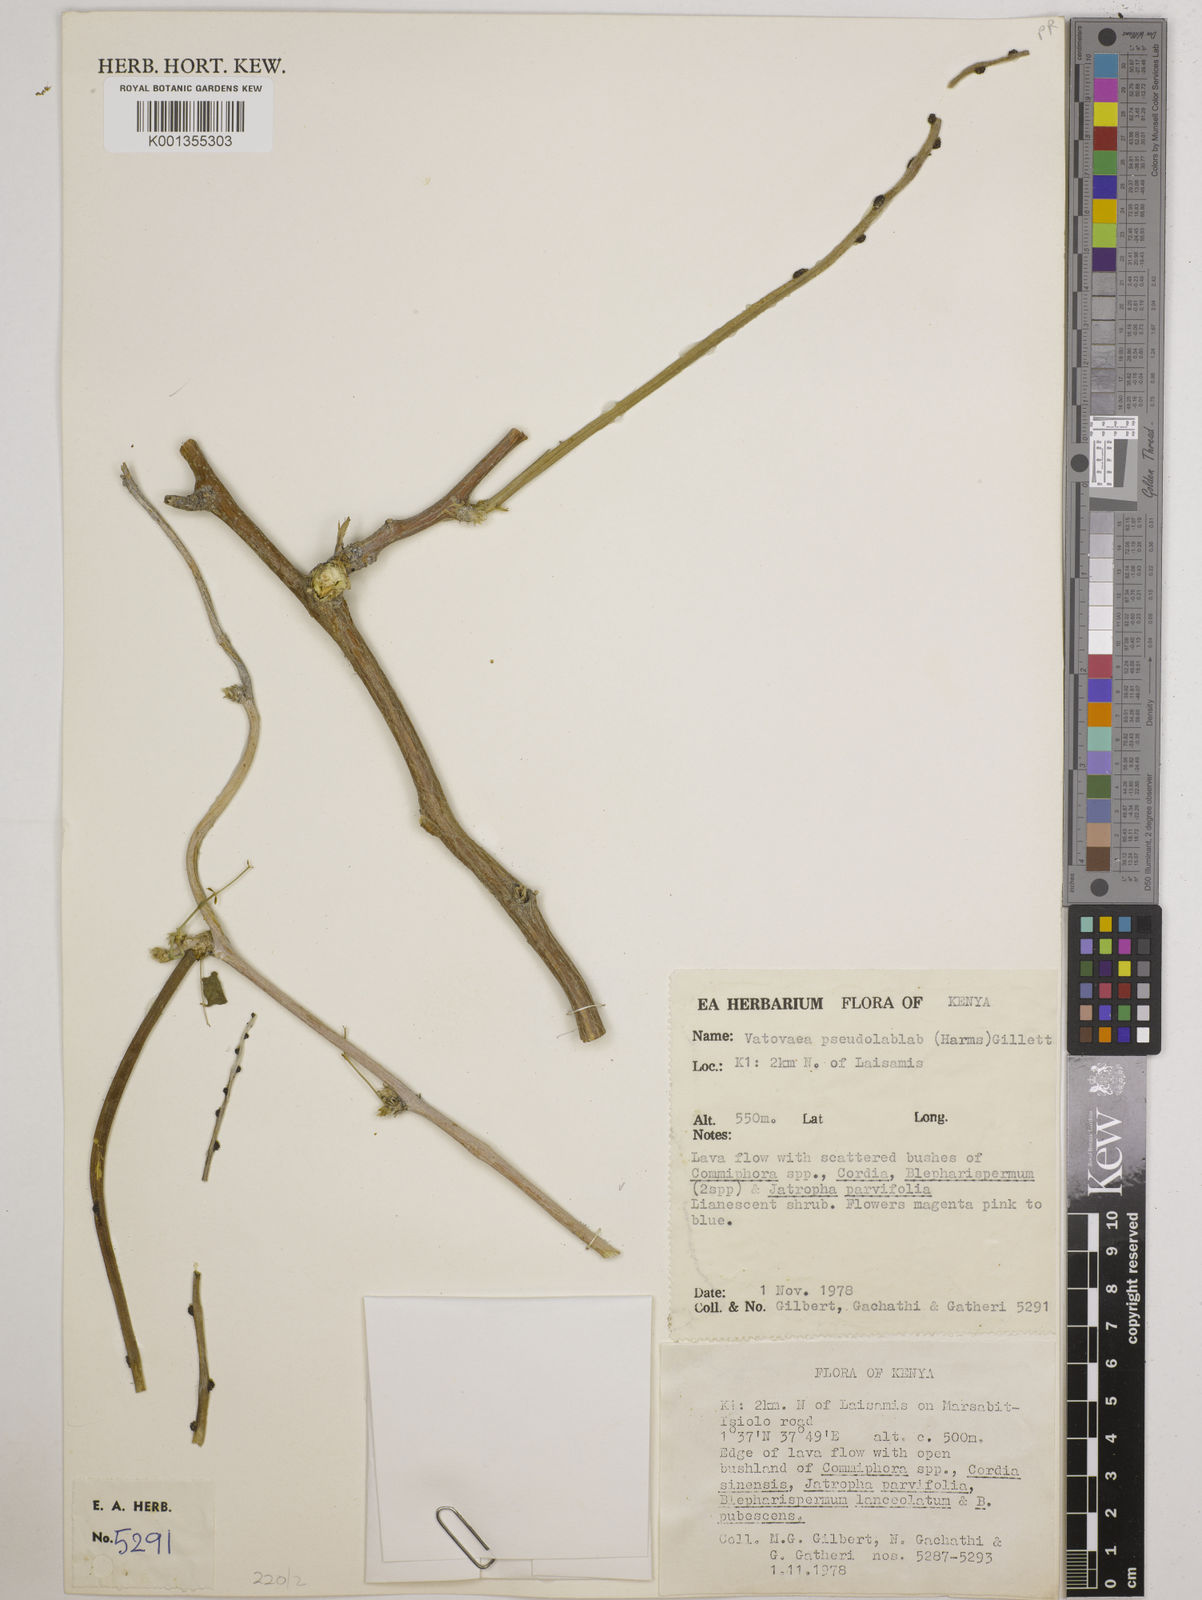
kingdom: Plantae
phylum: Tracheophyta
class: Magnoliopsida
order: Fabales
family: Fabaceae
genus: Vatovaea
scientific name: Vatovaea pseudolablab
